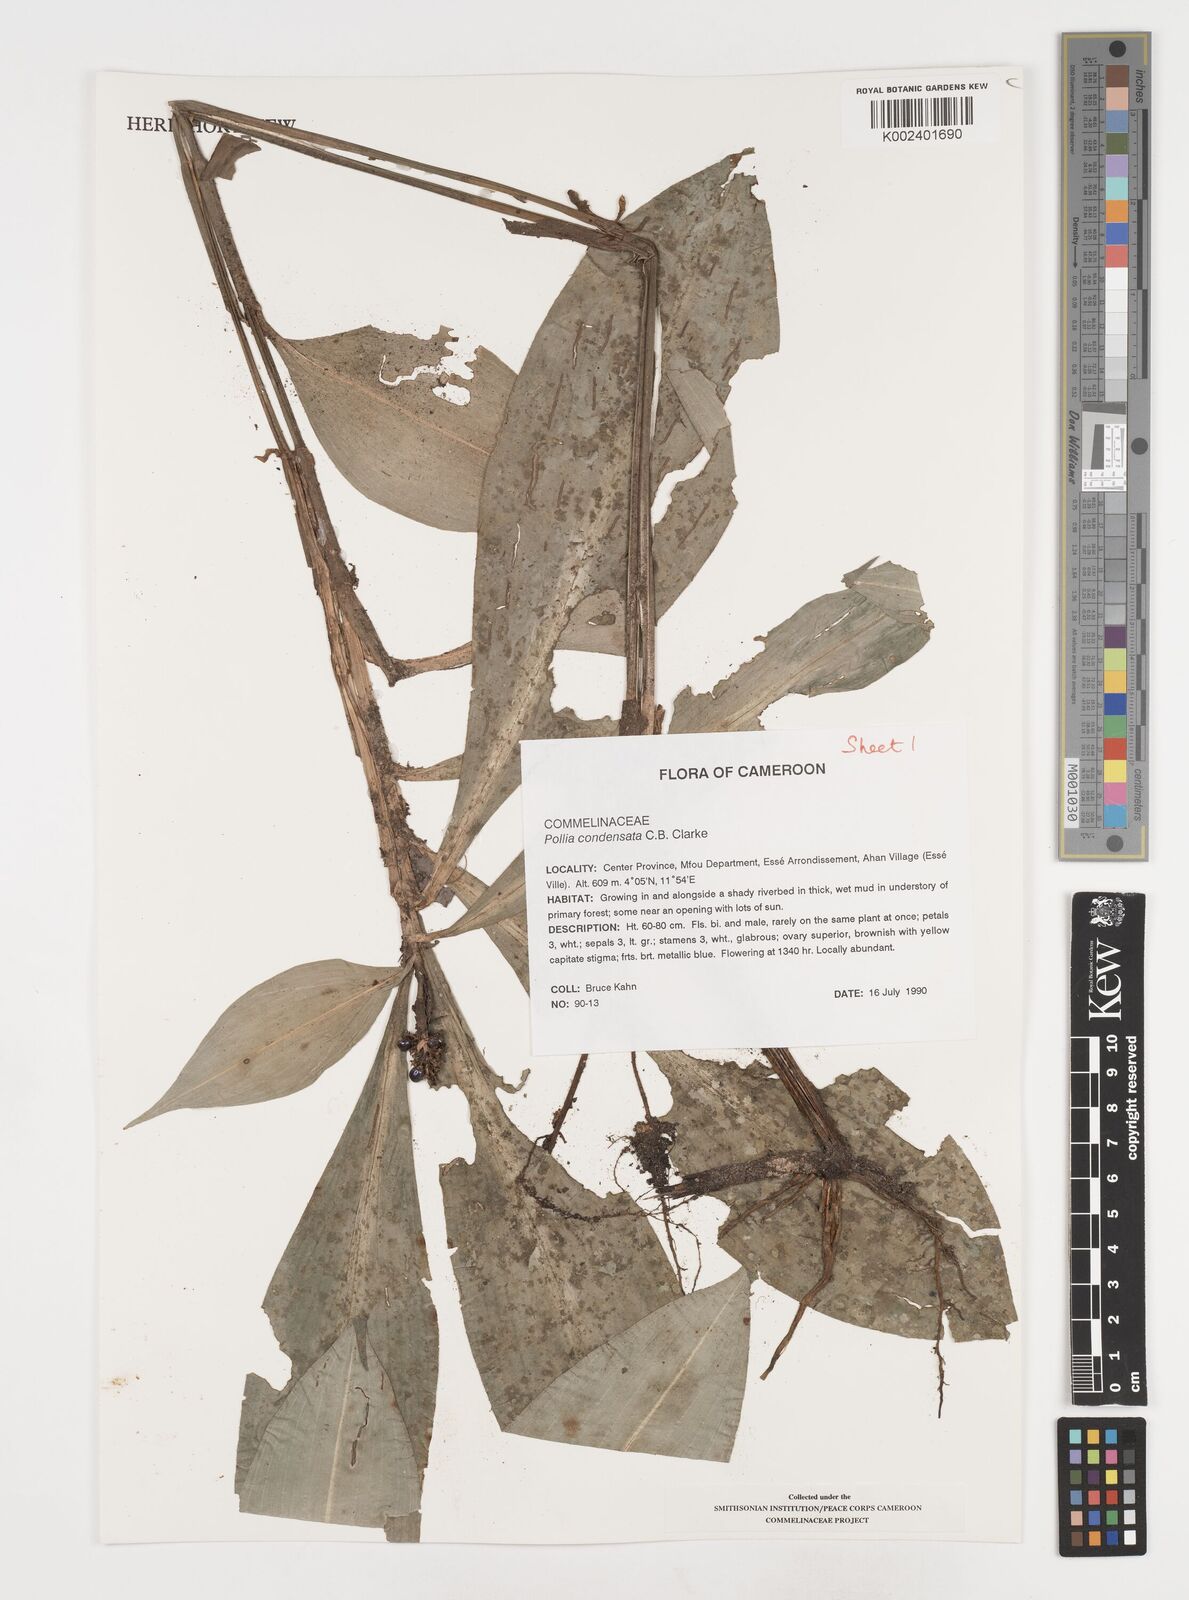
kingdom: Plantae
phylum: Tracheophyta
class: Liliopsida
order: Commelinales
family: Commelinaceae
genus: Pollia
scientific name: Pollia condensata
